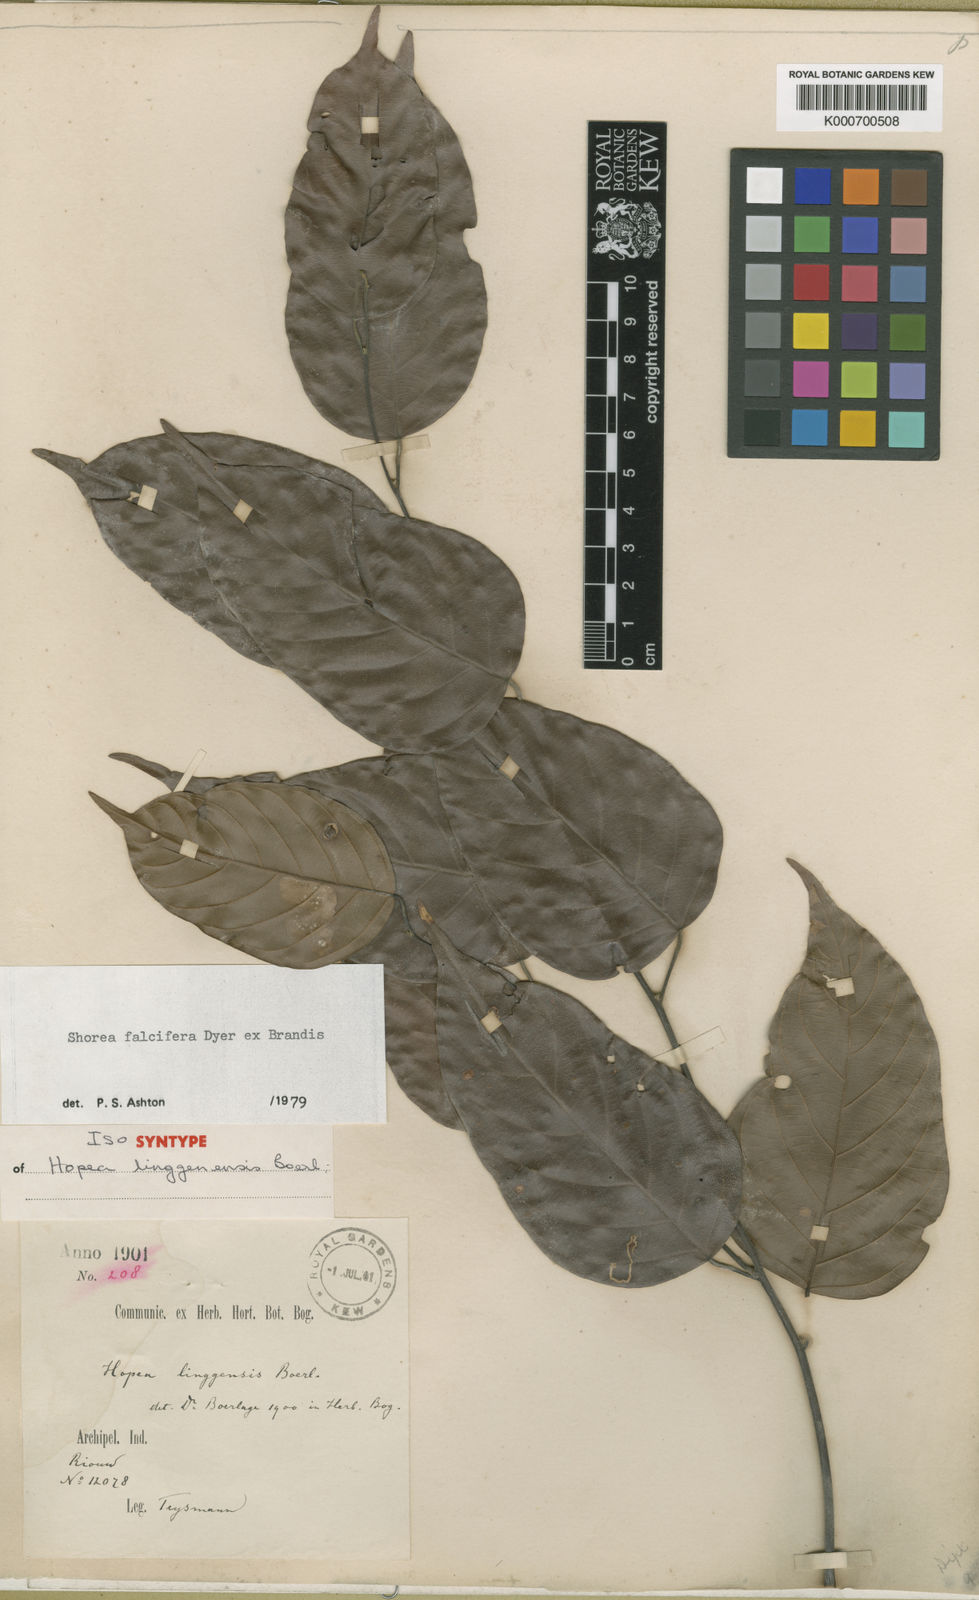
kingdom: Plantae
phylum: Tracheophyta
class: Magnoliopsida
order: Malvales
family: Dipterocarpaceae
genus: Shorea
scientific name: Shorea falcifera
